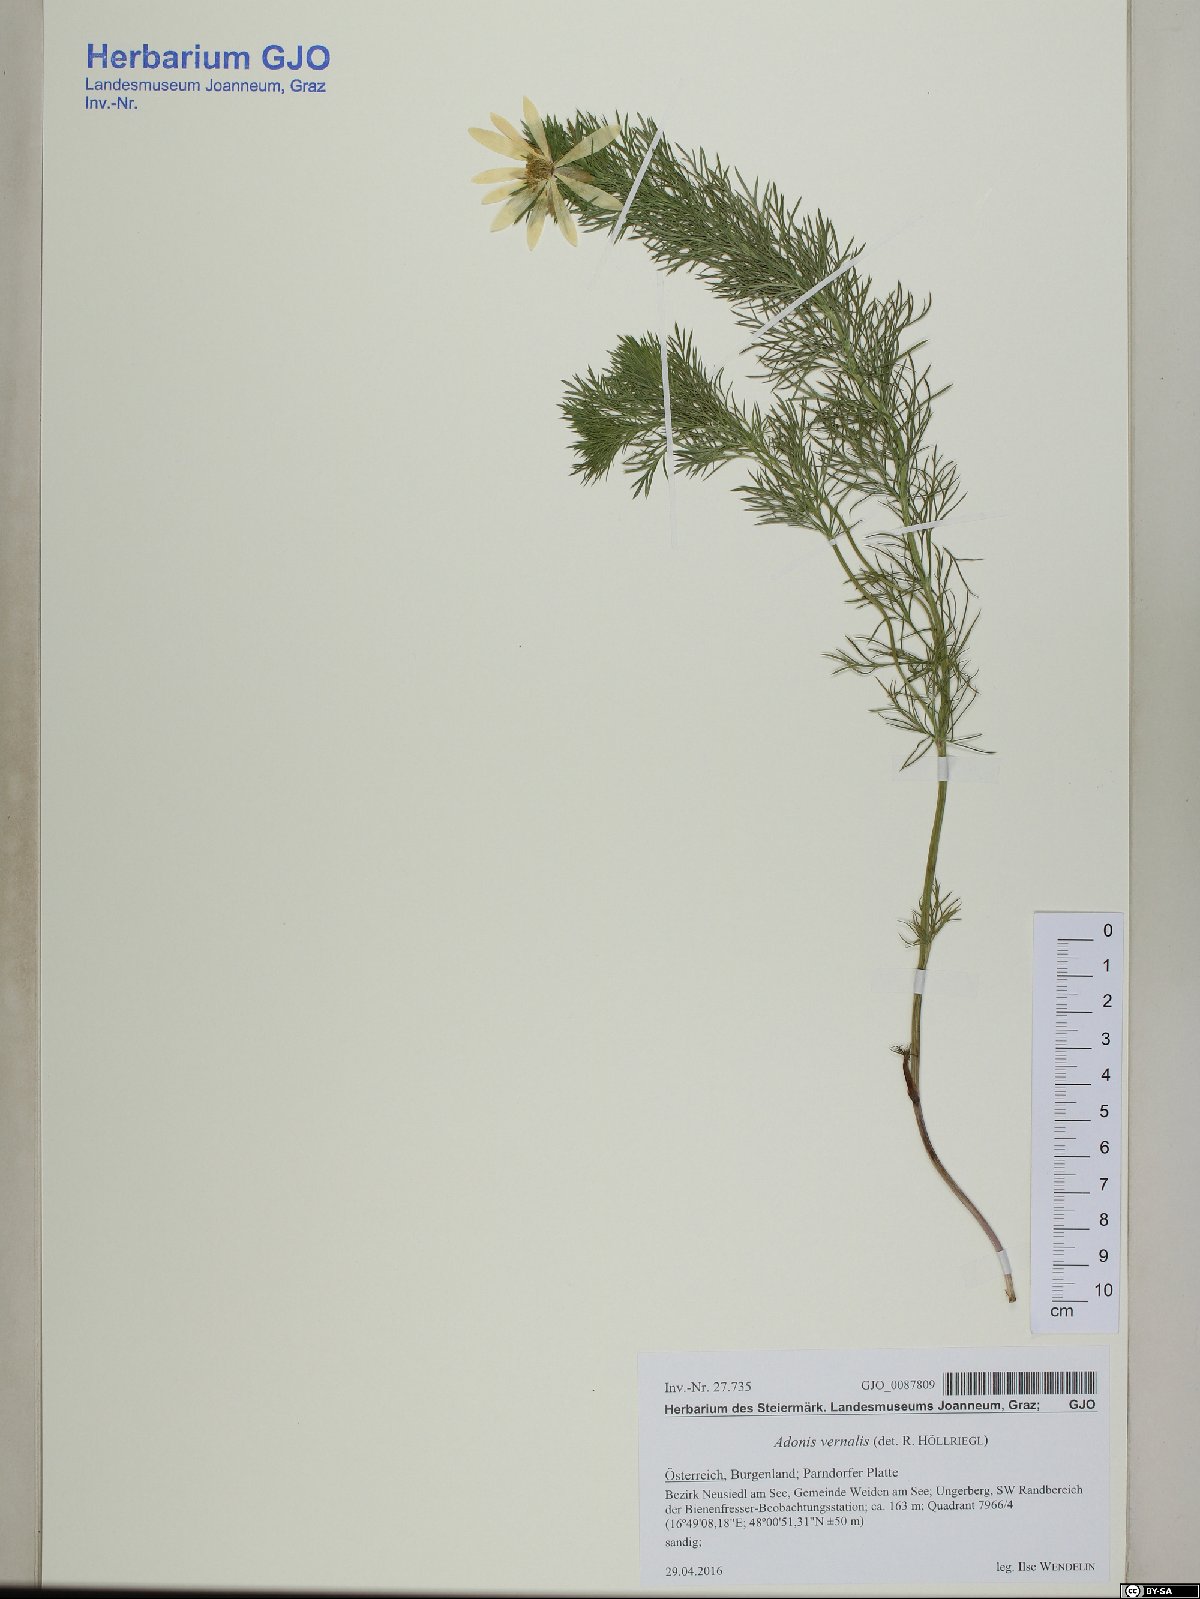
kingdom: Plantae
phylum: Tracheophyta
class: Magnoliopsida
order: Ranunculales
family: Ranunculaceae
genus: Adonis
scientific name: Adonis vernalis
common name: Yellow pheasants-eye
